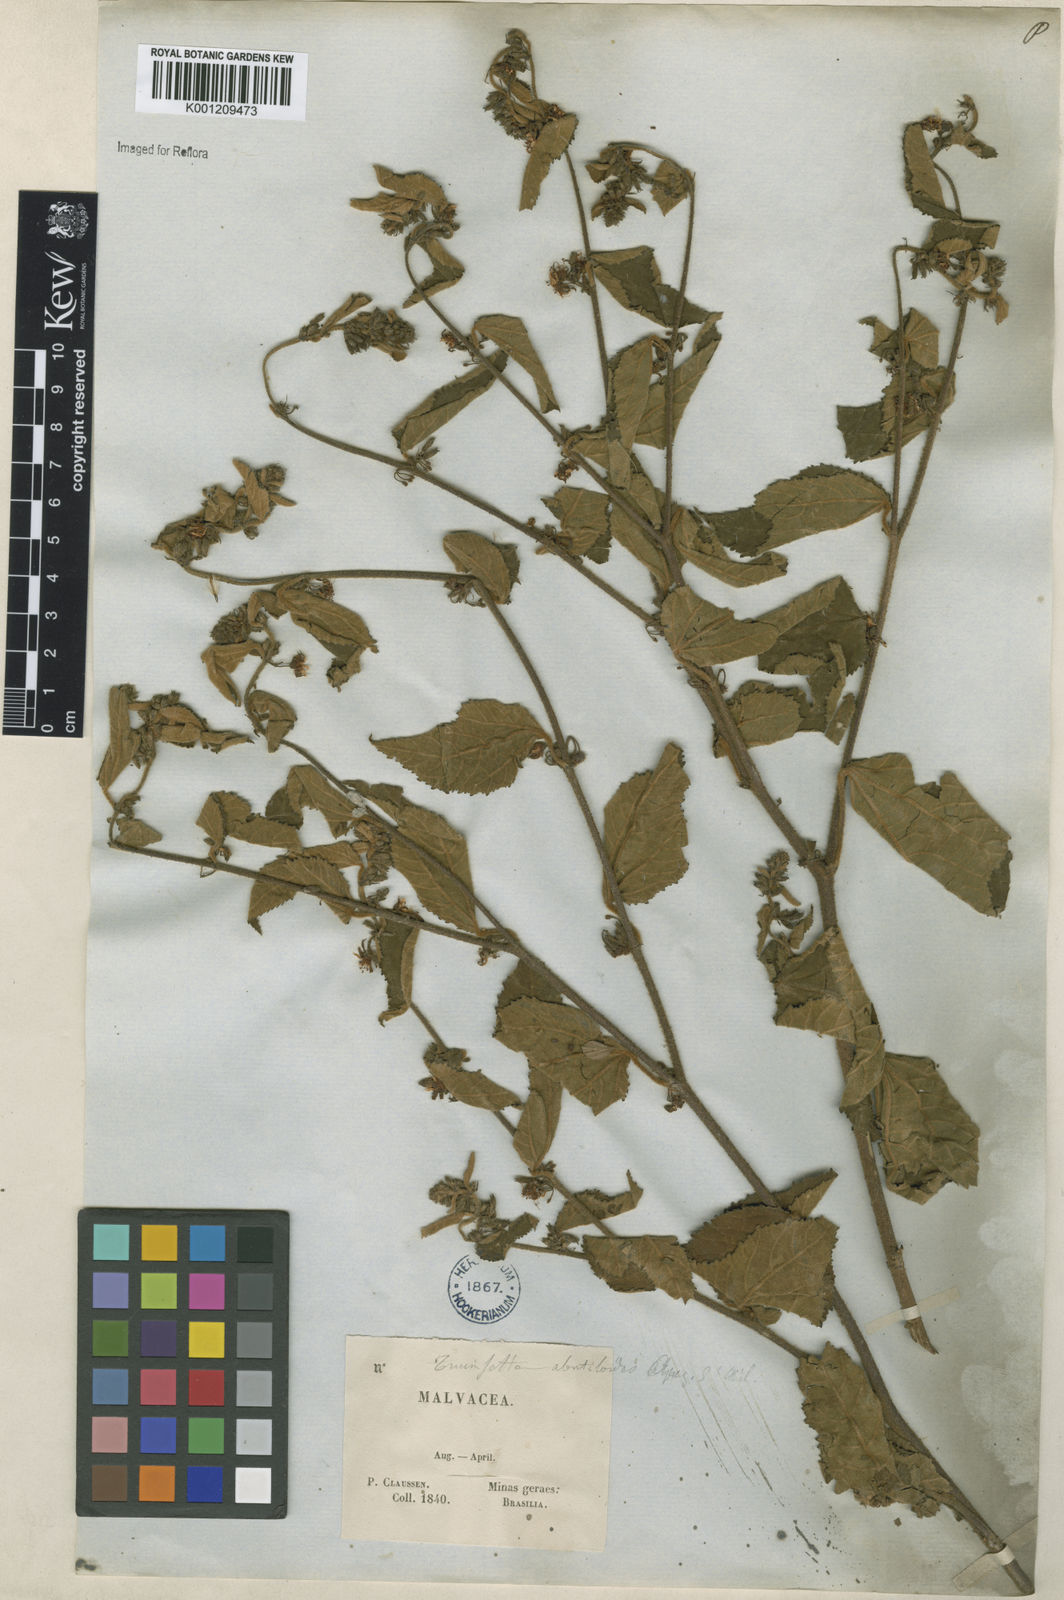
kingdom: Plantae
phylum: Tracheophyta
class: Magnoliopsida
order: Malvales
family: Malvaceae
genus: Triumfetta
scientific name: Triumfetta abutiloides
